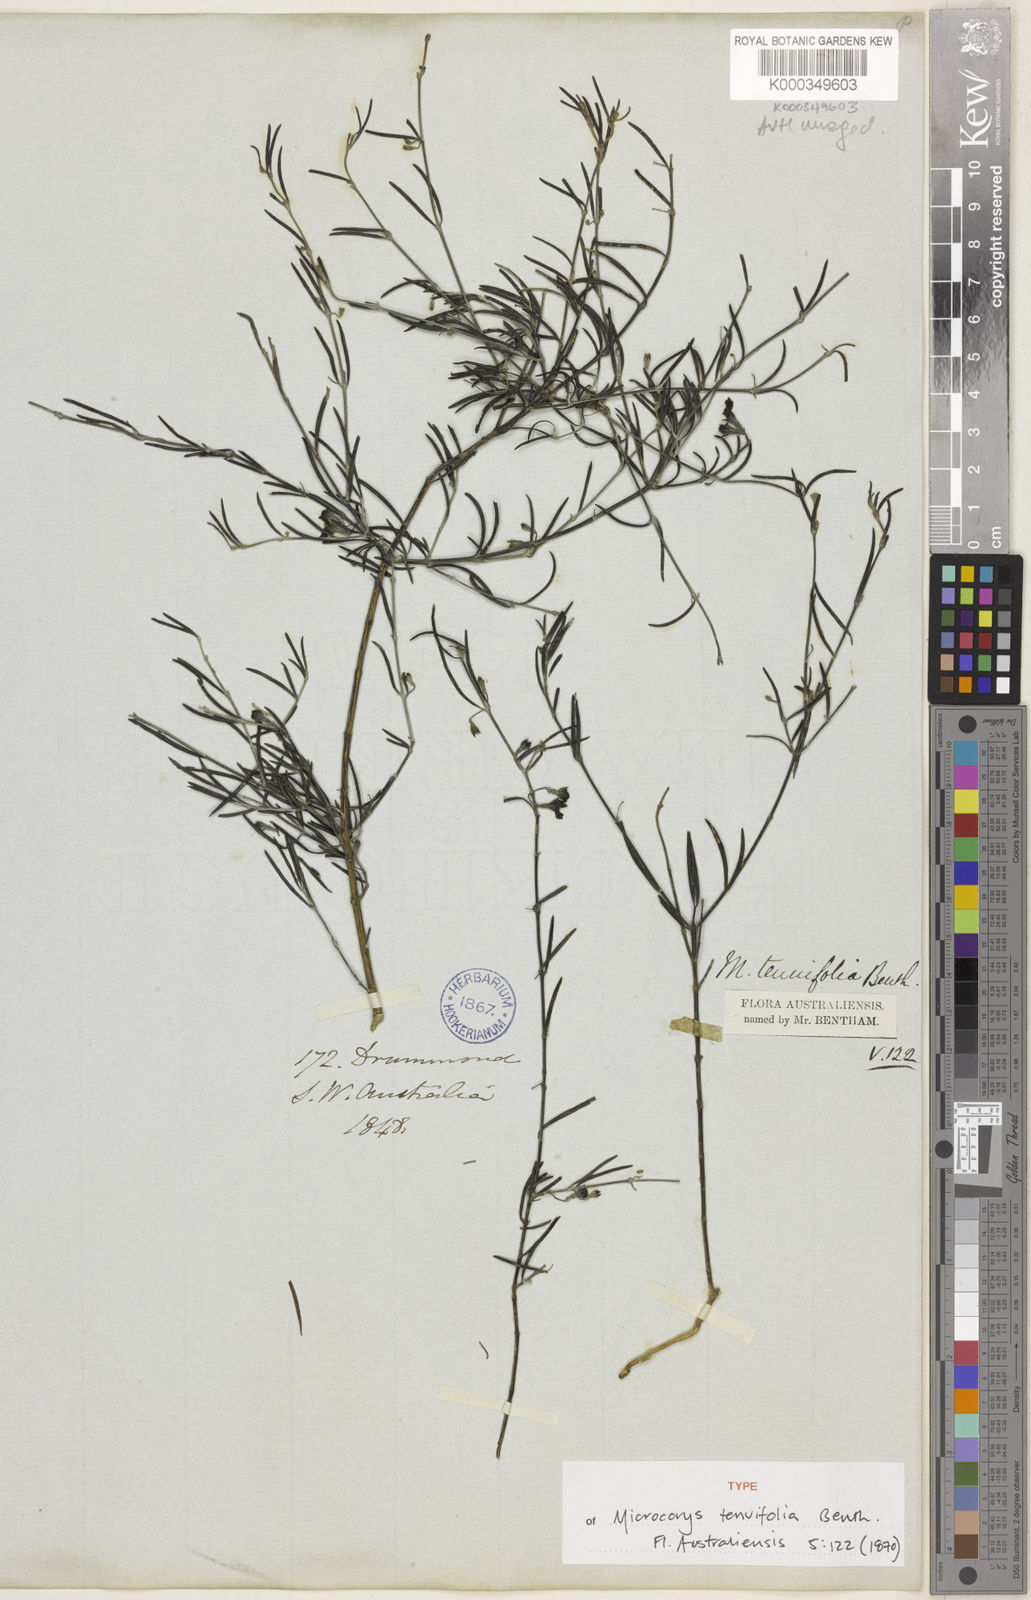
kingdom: Plantae
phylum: Tracheophyta
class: Magnoliopsida
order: Lamiales
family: Lamiaceae
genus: Microcorys
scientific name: Microcorys tenuifolia
